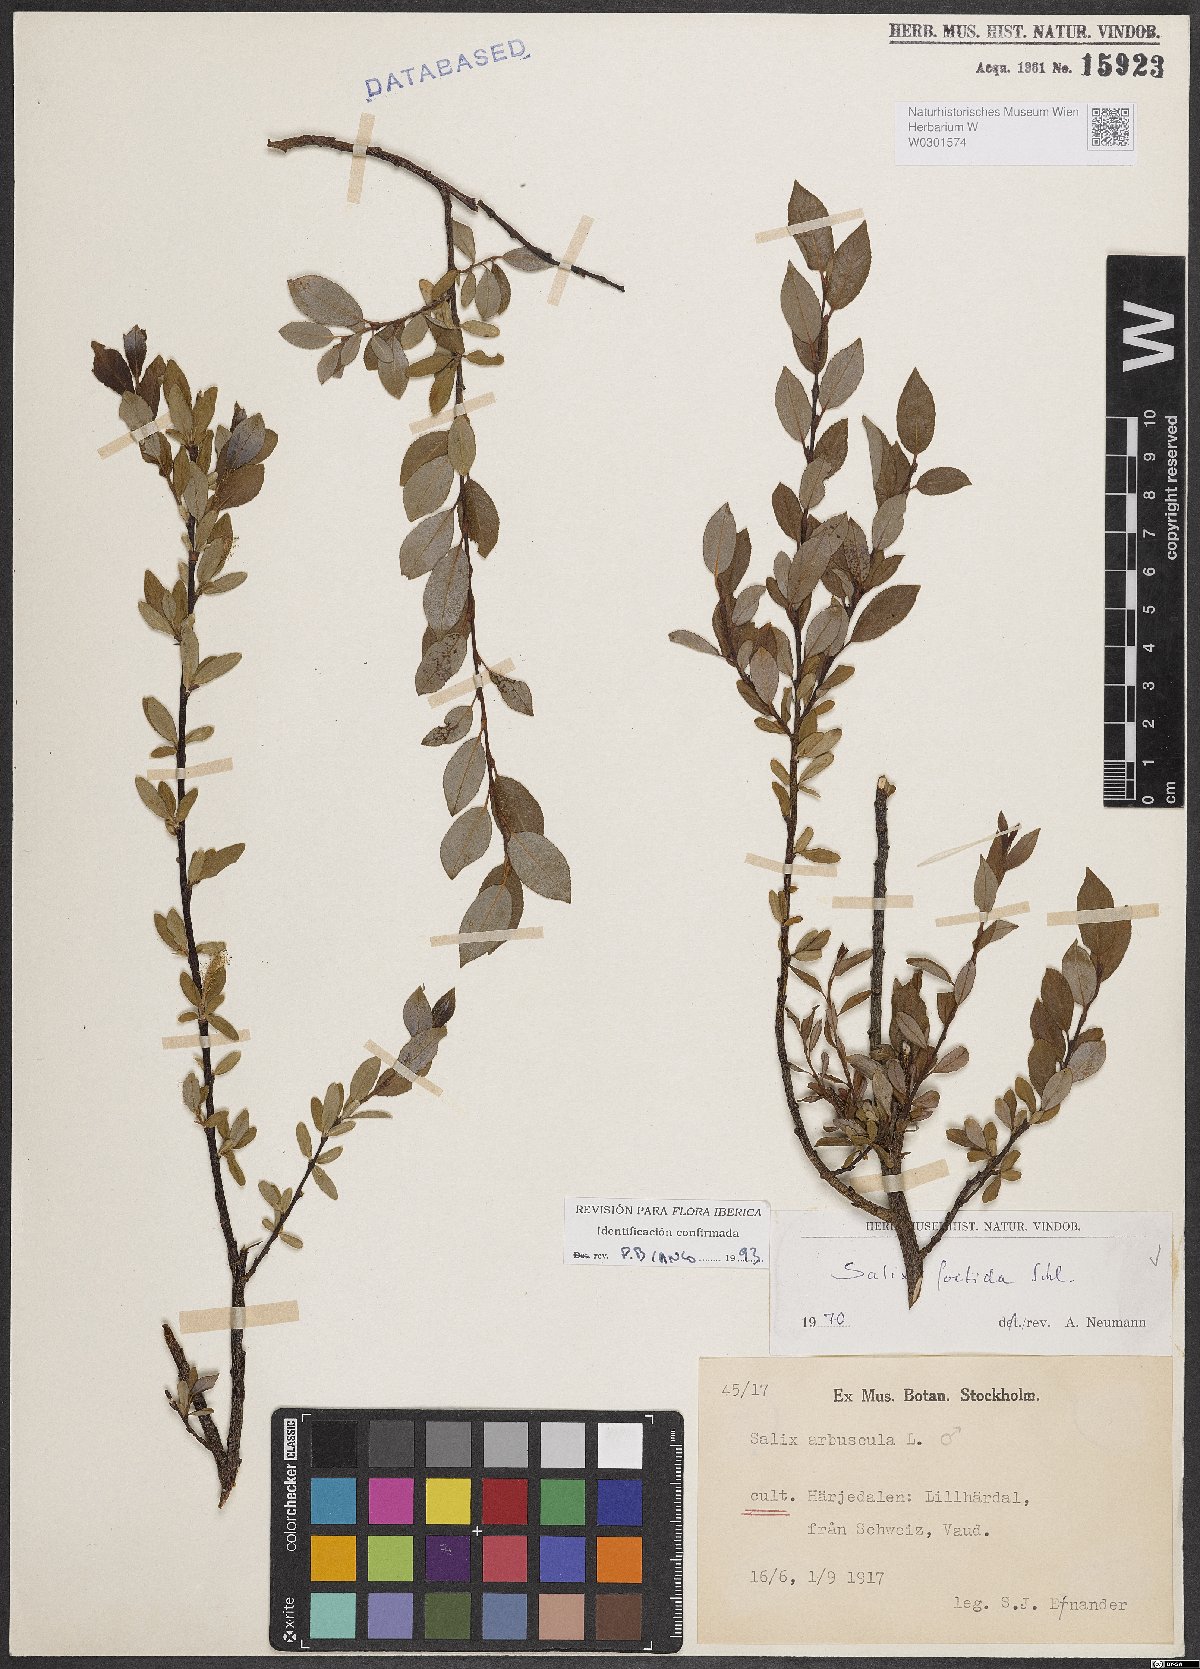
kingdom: Plantae
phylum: Tracheophyta
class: Magnoliopsida
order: Malpighiales
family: Salicaceae
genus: Salix
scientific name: Salix foetida
